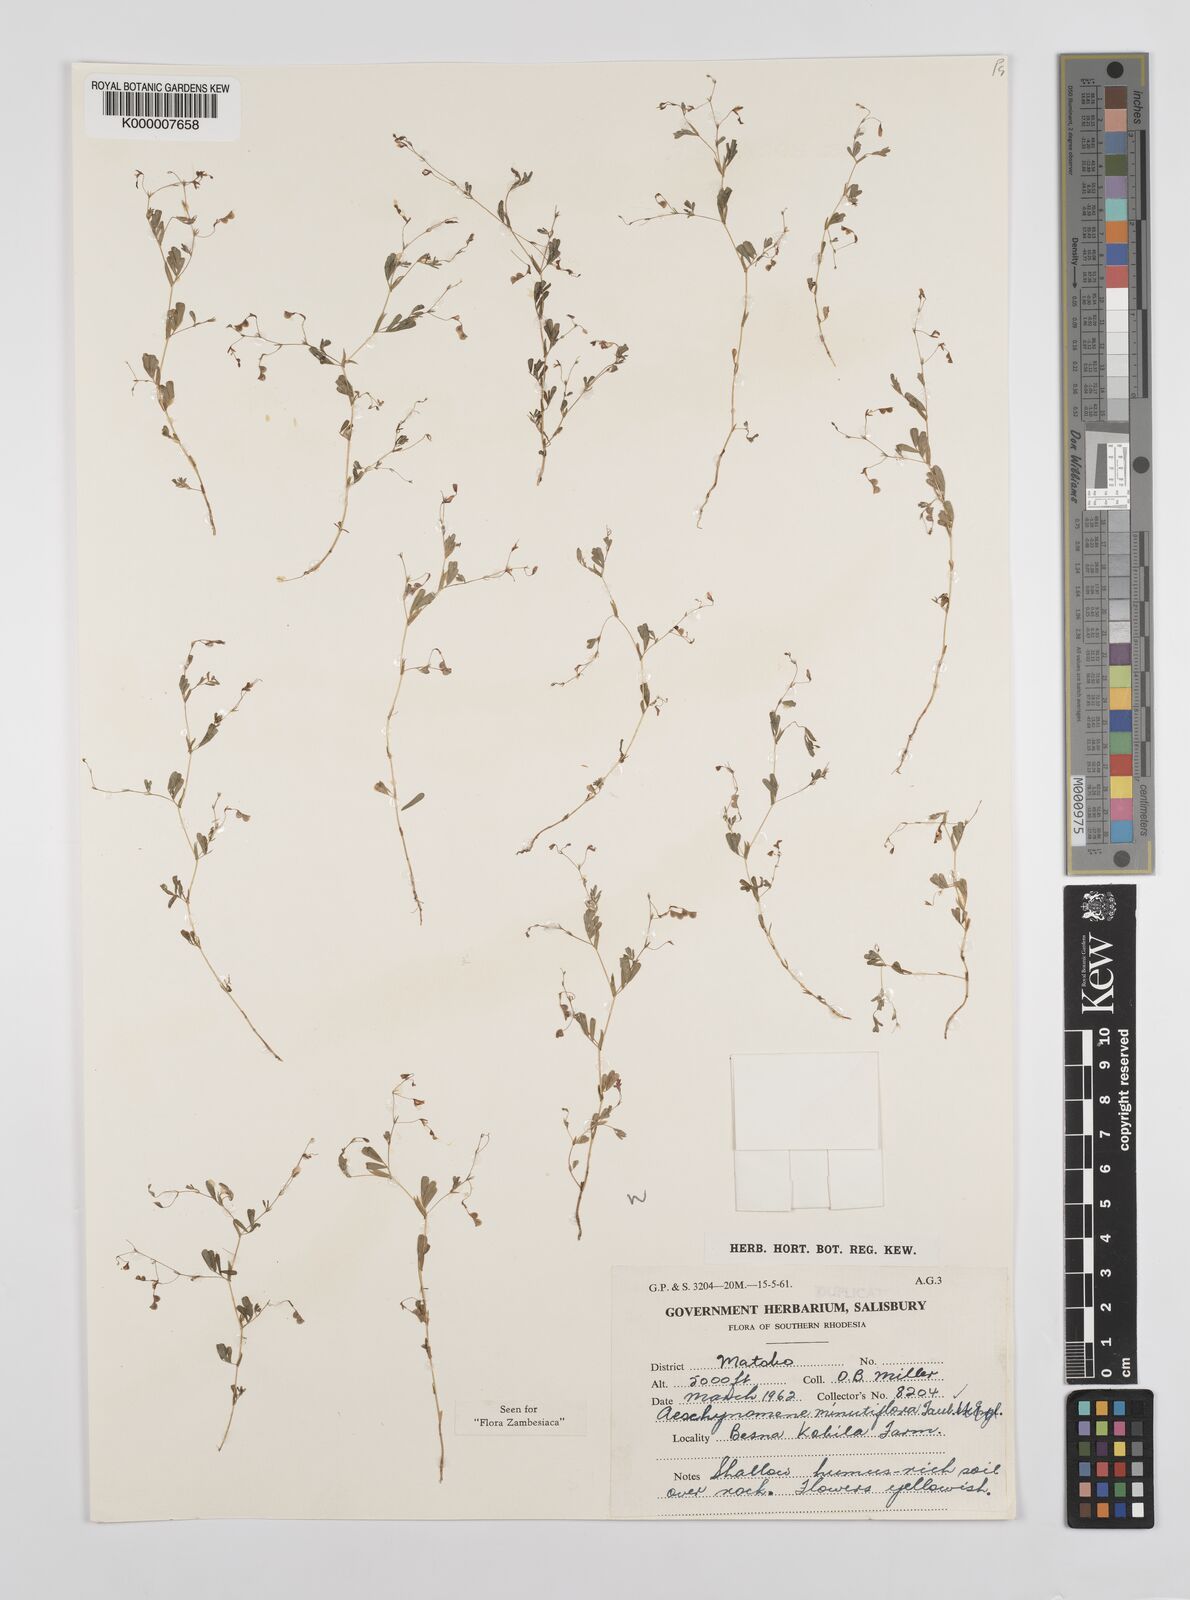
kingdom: Plantae
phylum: Tracheophyta
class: Magnoliopsida
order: Fabales
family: Fabaceae
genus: Aeschynomene
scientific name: Aeschynomene minutiflora
